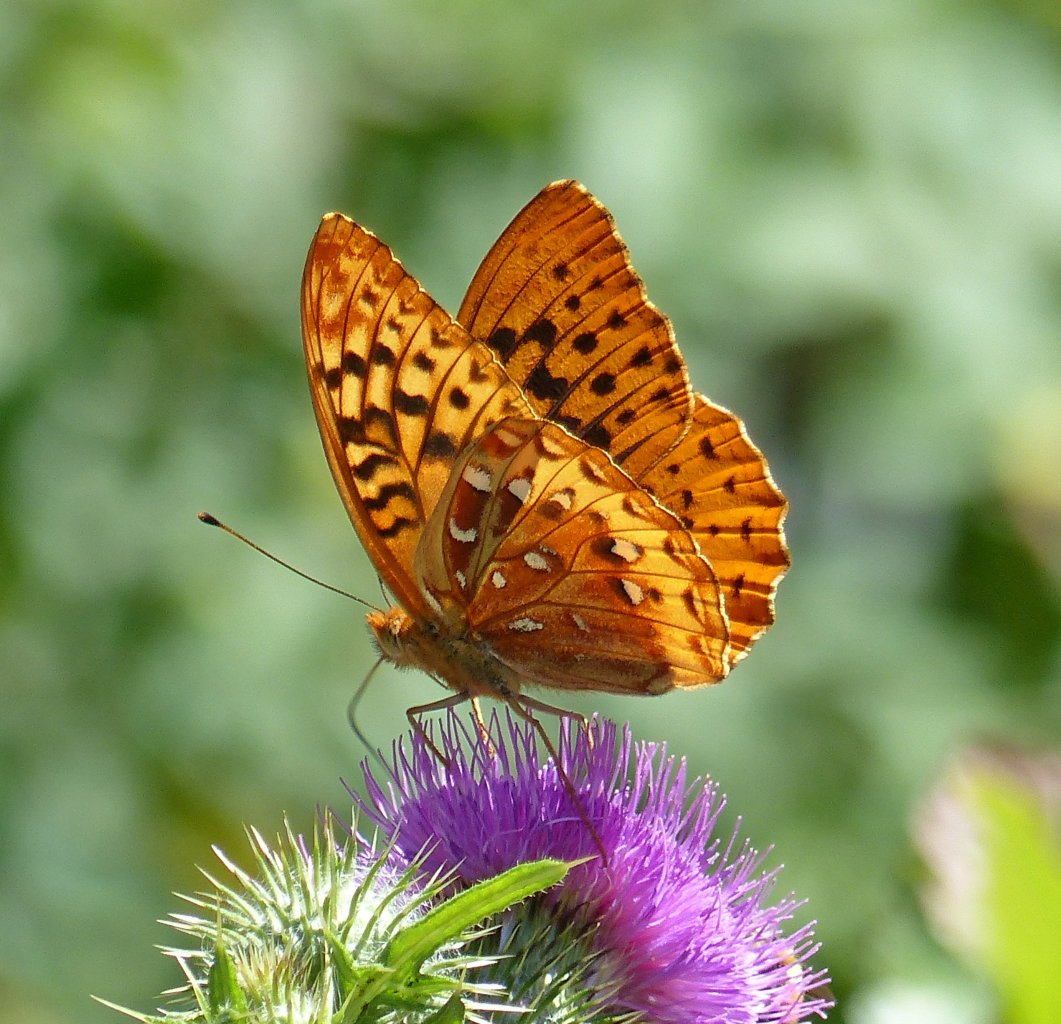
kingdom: Animalia
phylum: Arthropoda
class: Insecta
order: Lepidoptera
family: Nymphalidae
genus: Speyeria
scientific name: Speyeria cybele
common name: Great Spangled Fritillary
